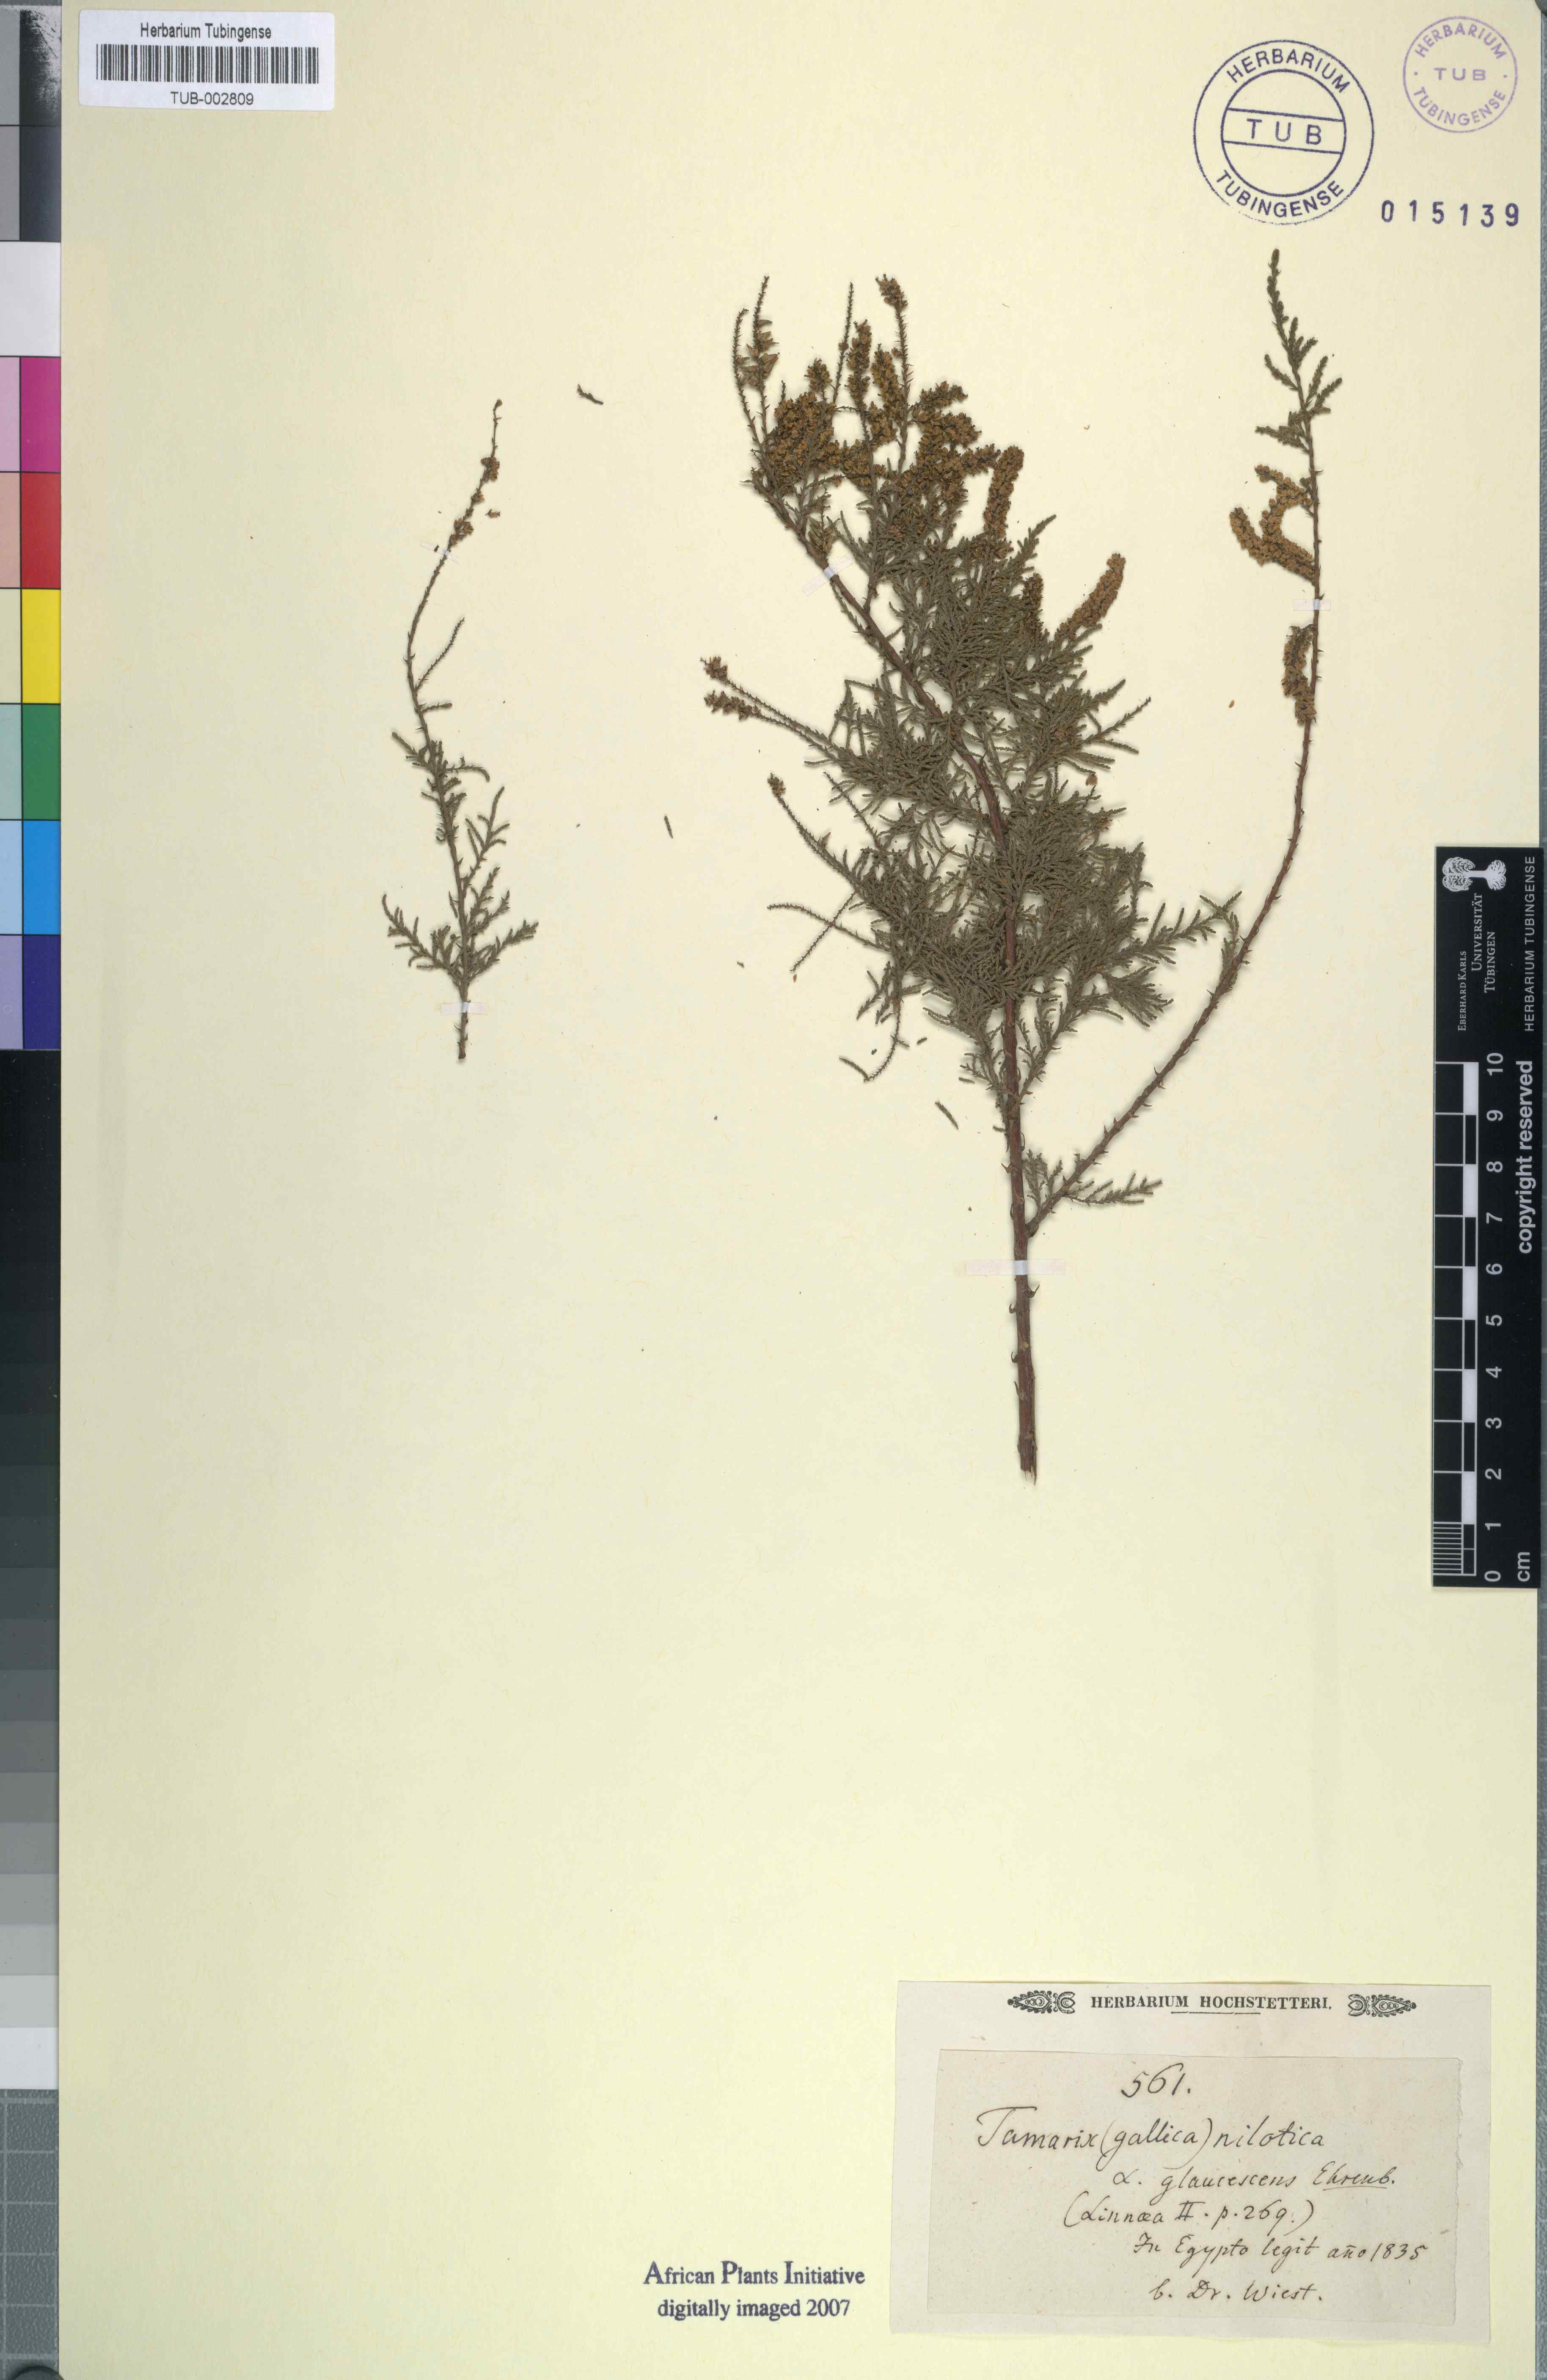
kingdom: Plantae
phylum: Tracheophyta
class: Magnoliopsida
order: Caryophyllales
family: Tamaricaceae
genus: Tamarix
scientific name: Tamarix gallica
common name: Tamarisk
